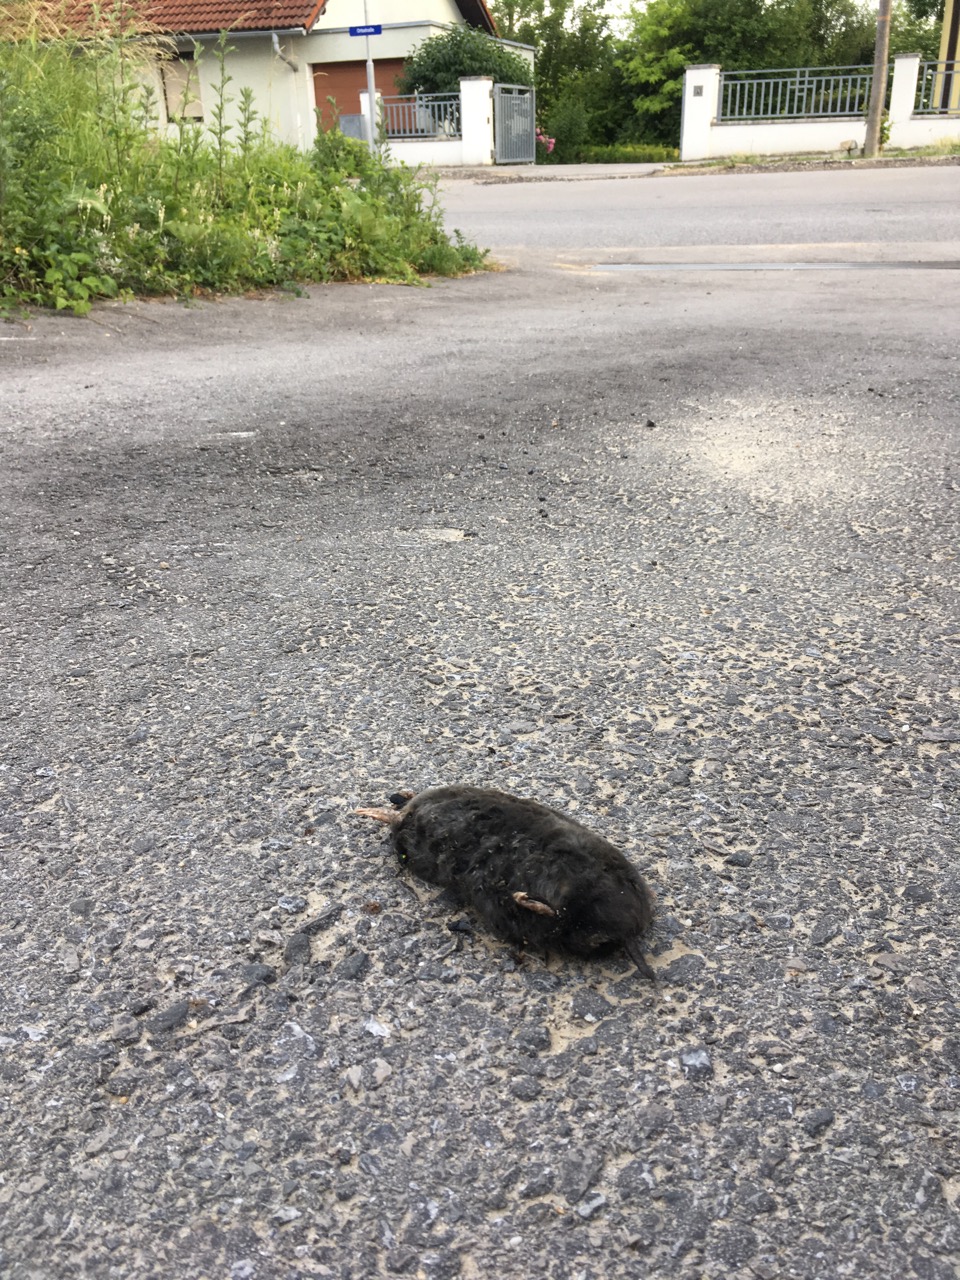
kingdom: Animalia
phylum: Chordata
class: Mammalia
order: Soricomorpha
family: Talpidae
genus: Talpa
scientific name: Talpa europaea
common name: European mole
